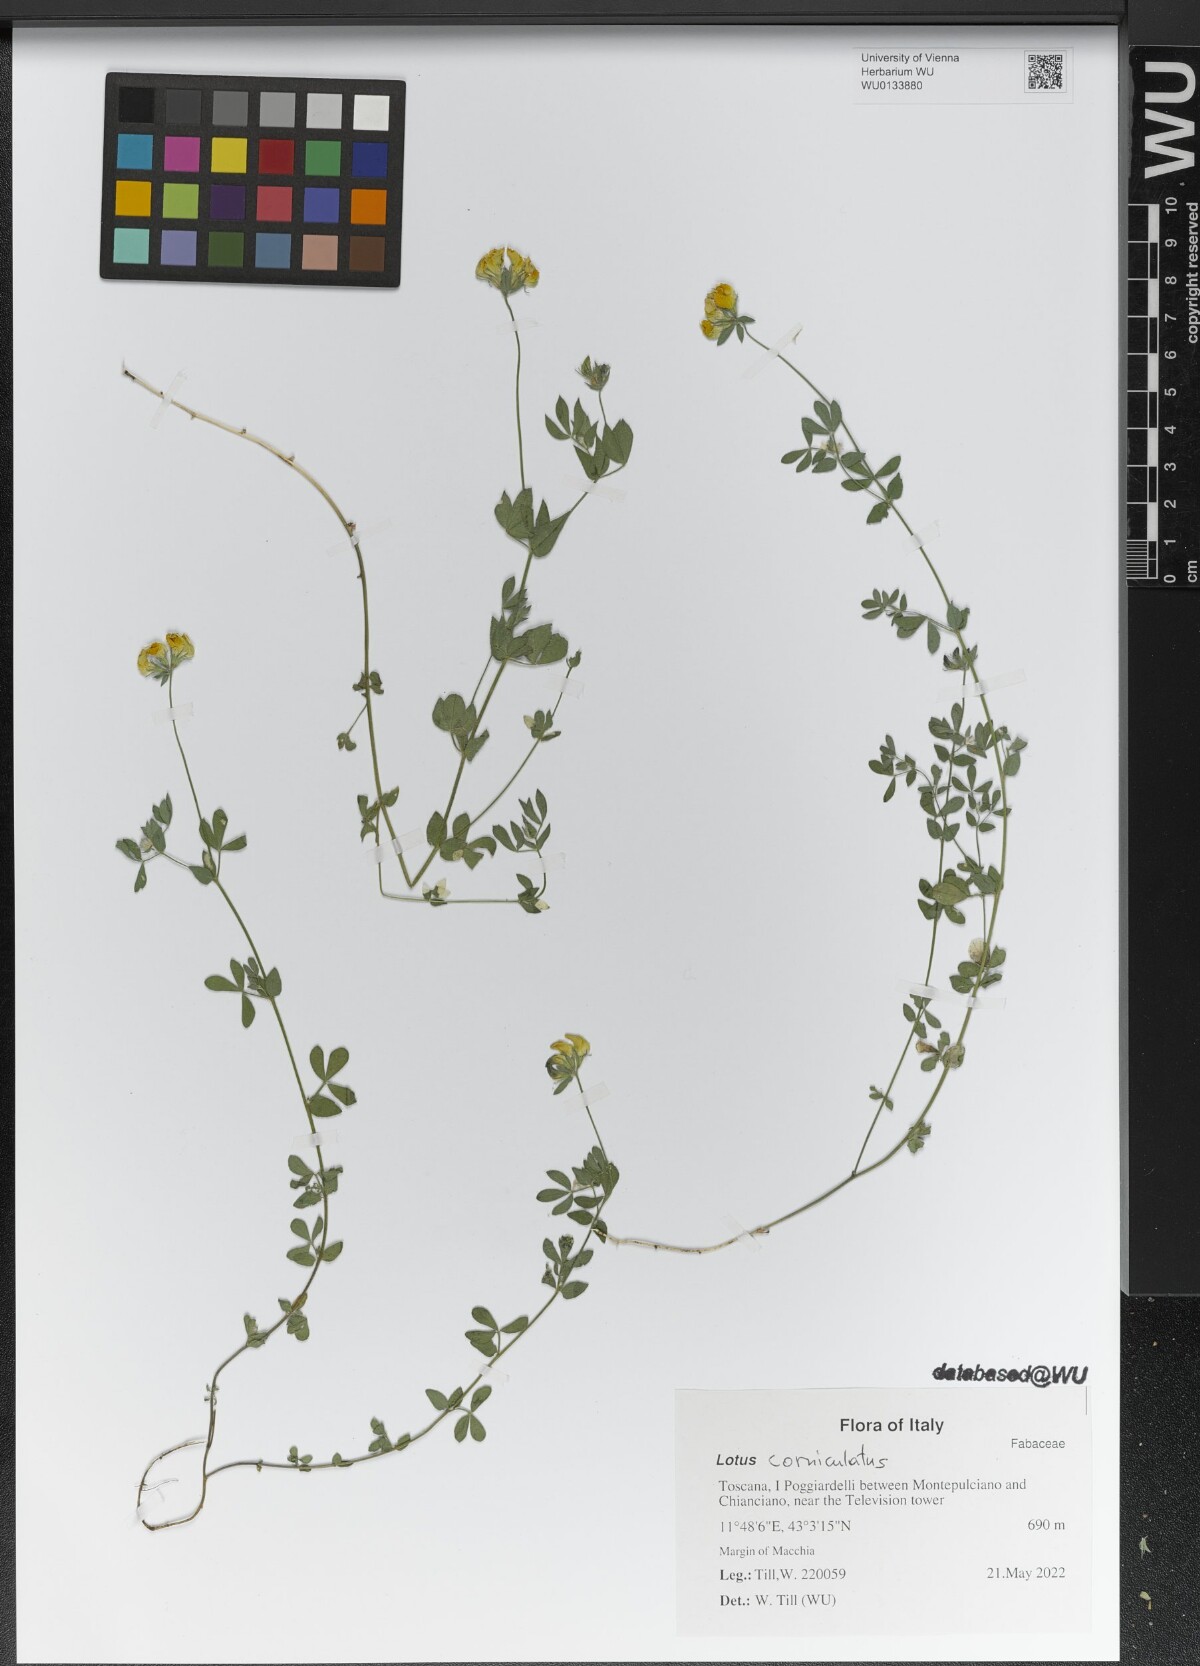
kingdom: Plantae
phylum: Tracheophyta
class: Magnoliopsida
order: Fabales
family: Fabaceae
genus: Lotus
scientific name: Lotus corniculatus
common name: Common bird's-foot-trefoil
